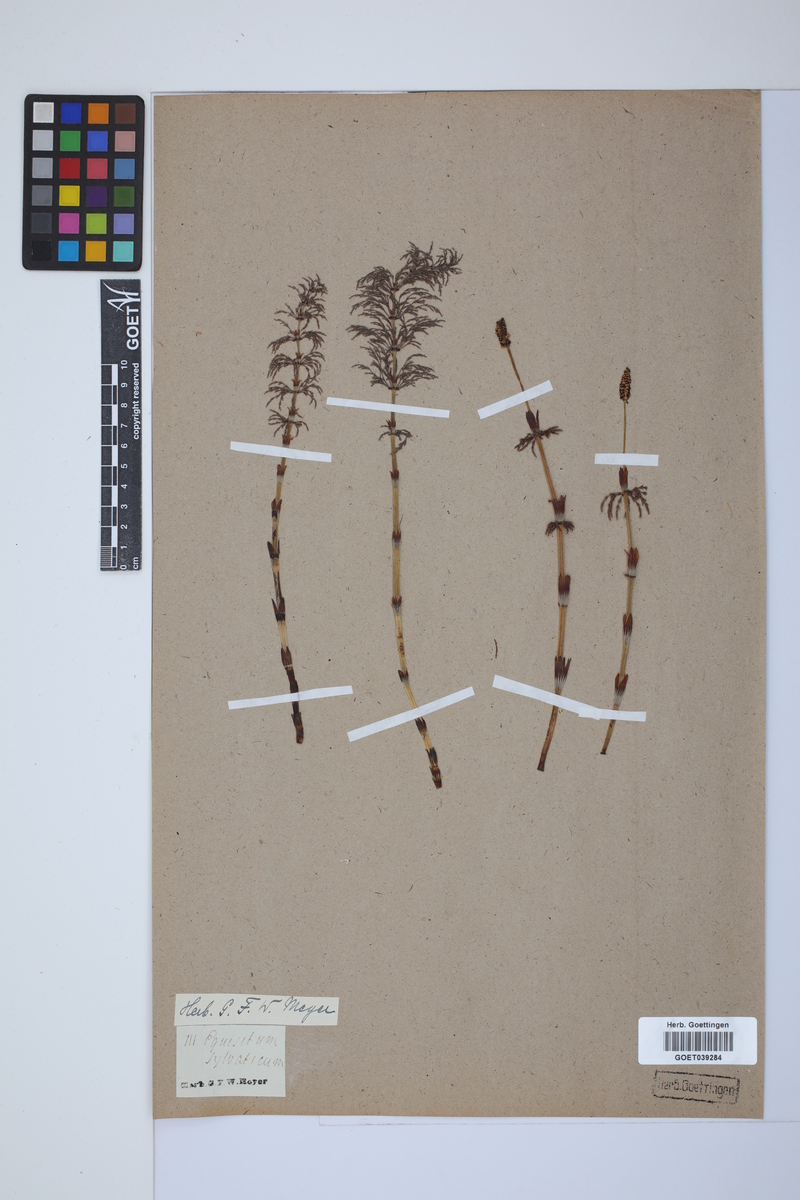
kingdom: Plantae
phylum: Tracheophyta
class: Polypodiopsida
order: Equisetales
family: Equisetaceae
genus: Equisetum
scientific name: Equisetum sylvaticum
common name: Wood horsetail
